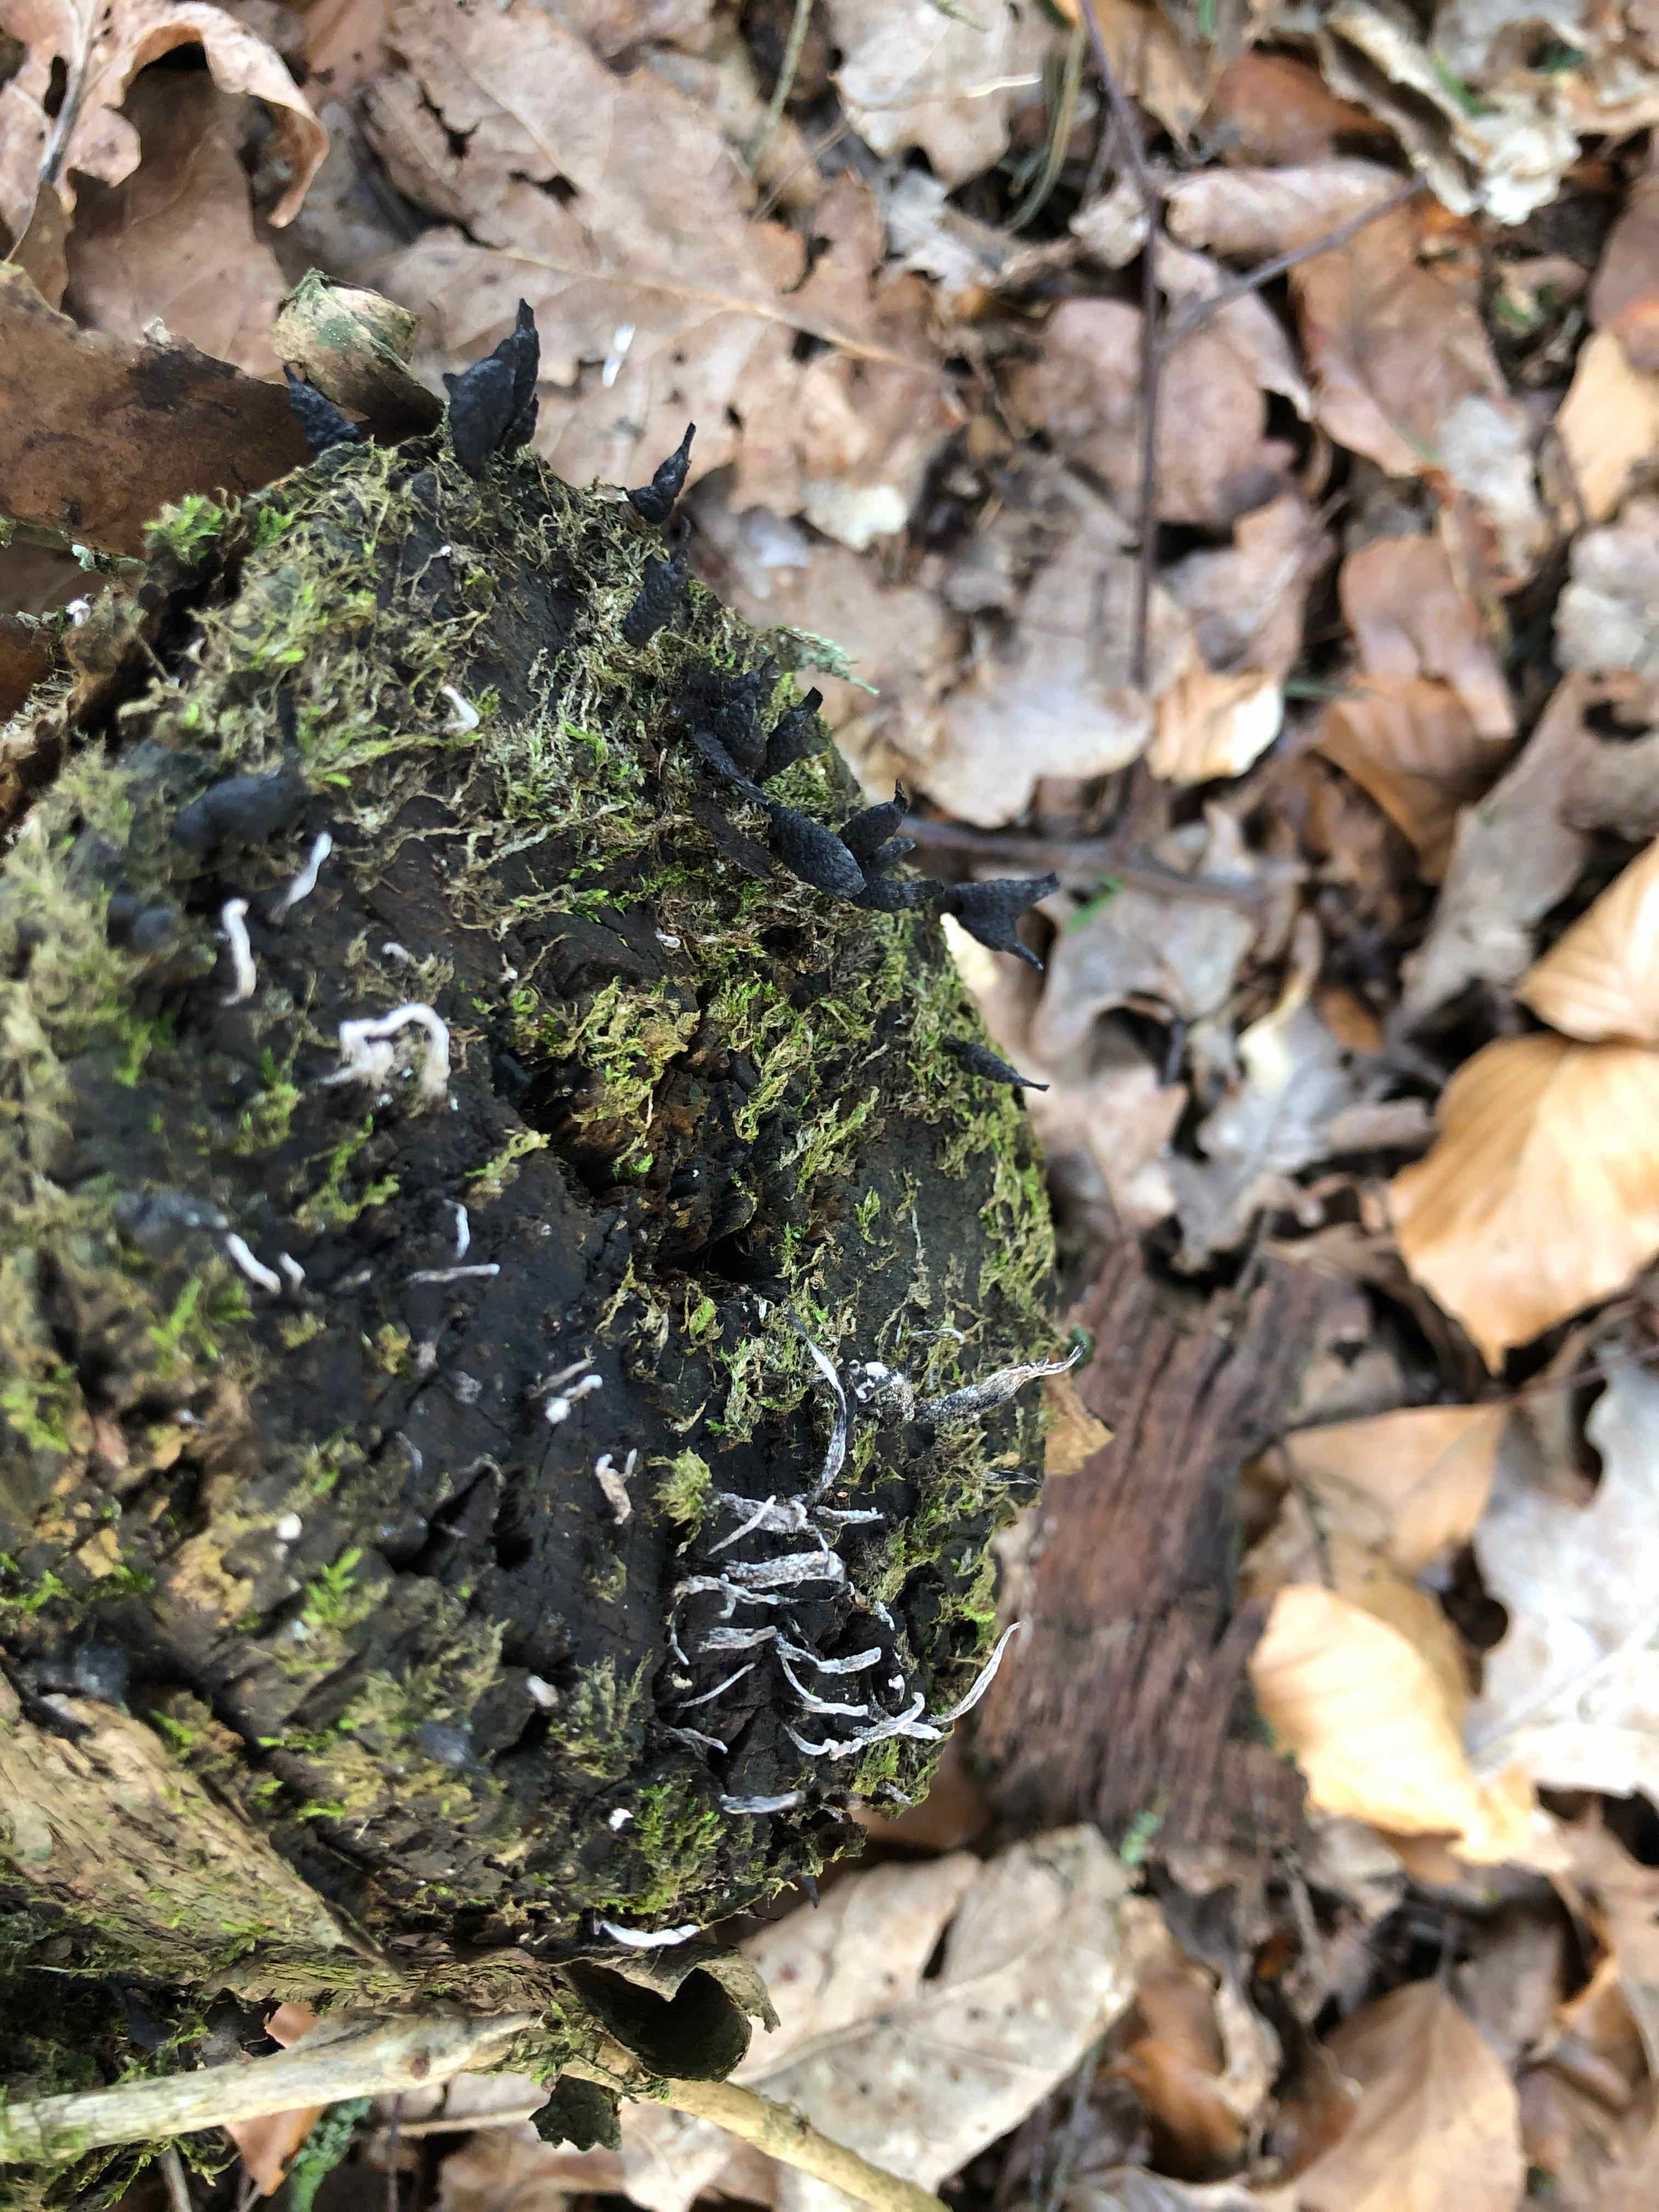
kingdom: Fungi
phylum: Ascomycota
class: Sordariomycetes
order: Xylariales
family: Xylariaceae
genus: Xylaria
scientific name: Xylaria hypoxylon
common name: grenet stødsvamp
